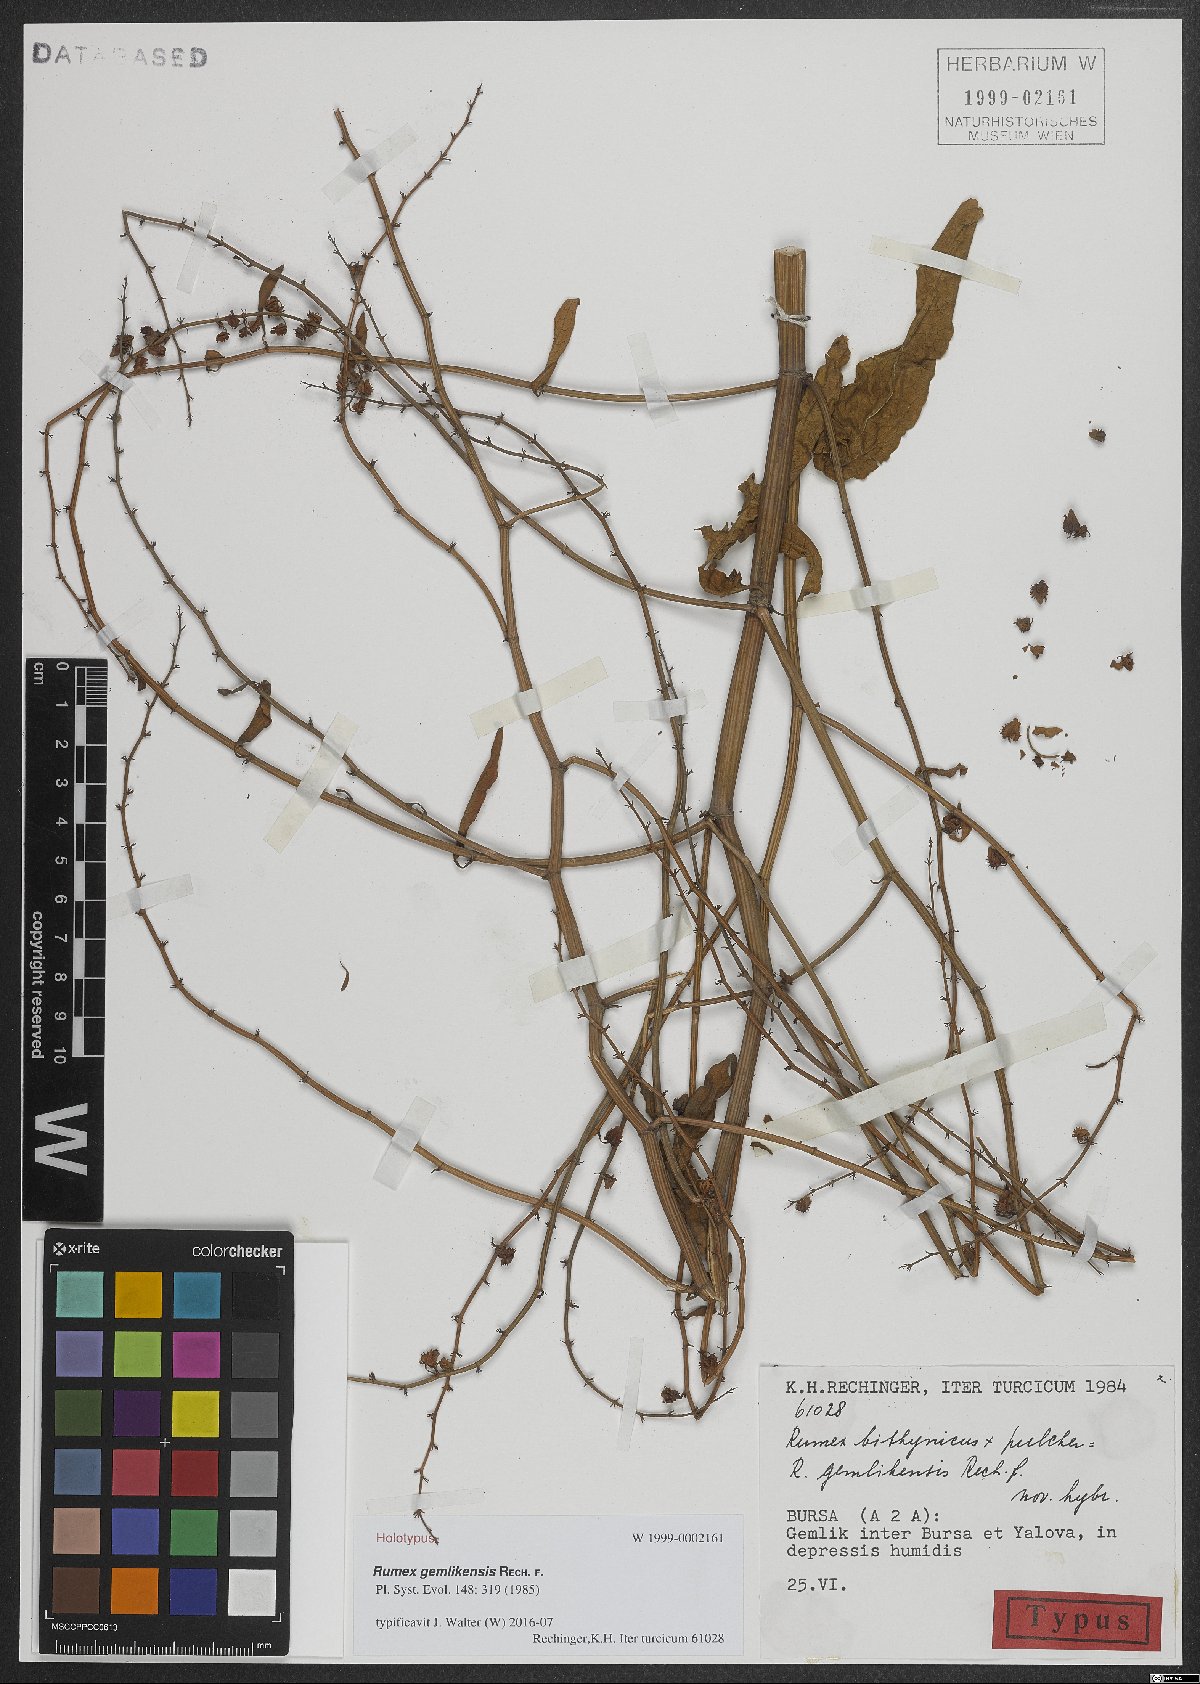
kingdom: Plantae
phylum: Tracheophyta
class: Magnoliopsida
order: Caryophyllales
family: Polygonaceae
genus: Rumex
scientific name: Rumex gemlikensis
